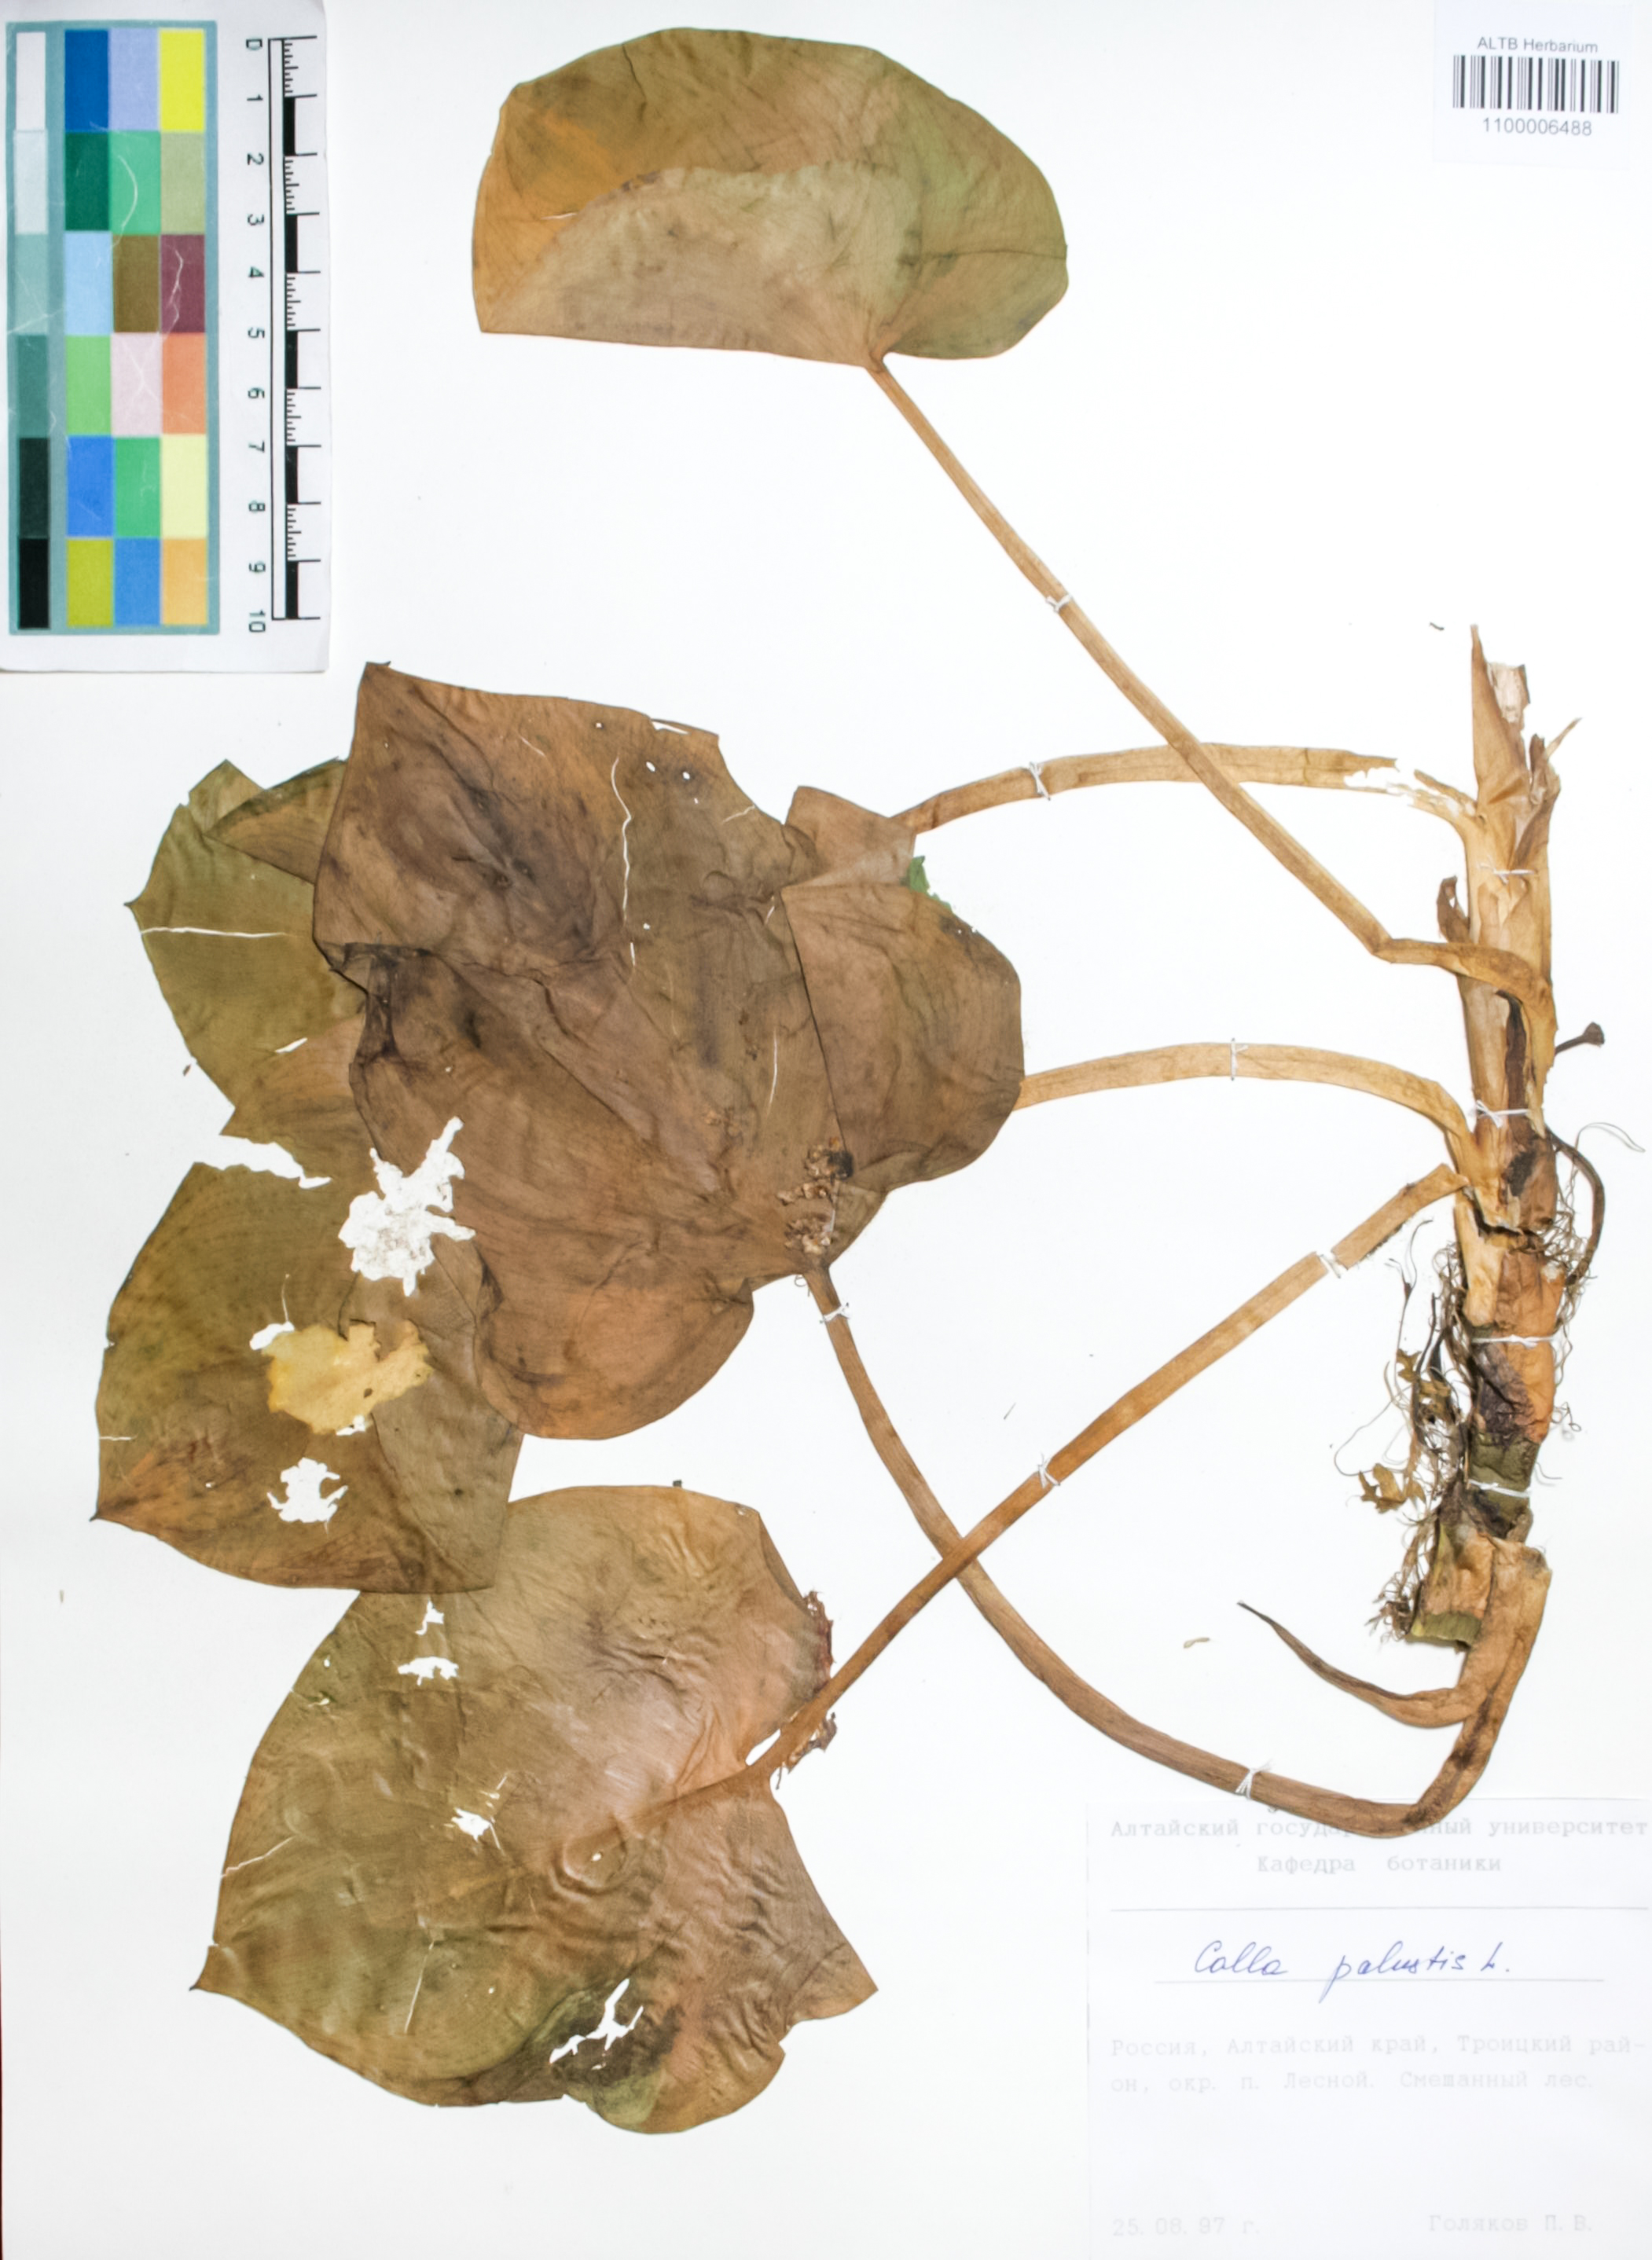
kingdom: Plantae
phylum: Tracheophyta
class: Liliopsida
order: Alismatales
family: Araceae
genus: Calla
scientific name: Calla palustris
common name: Bog arum
